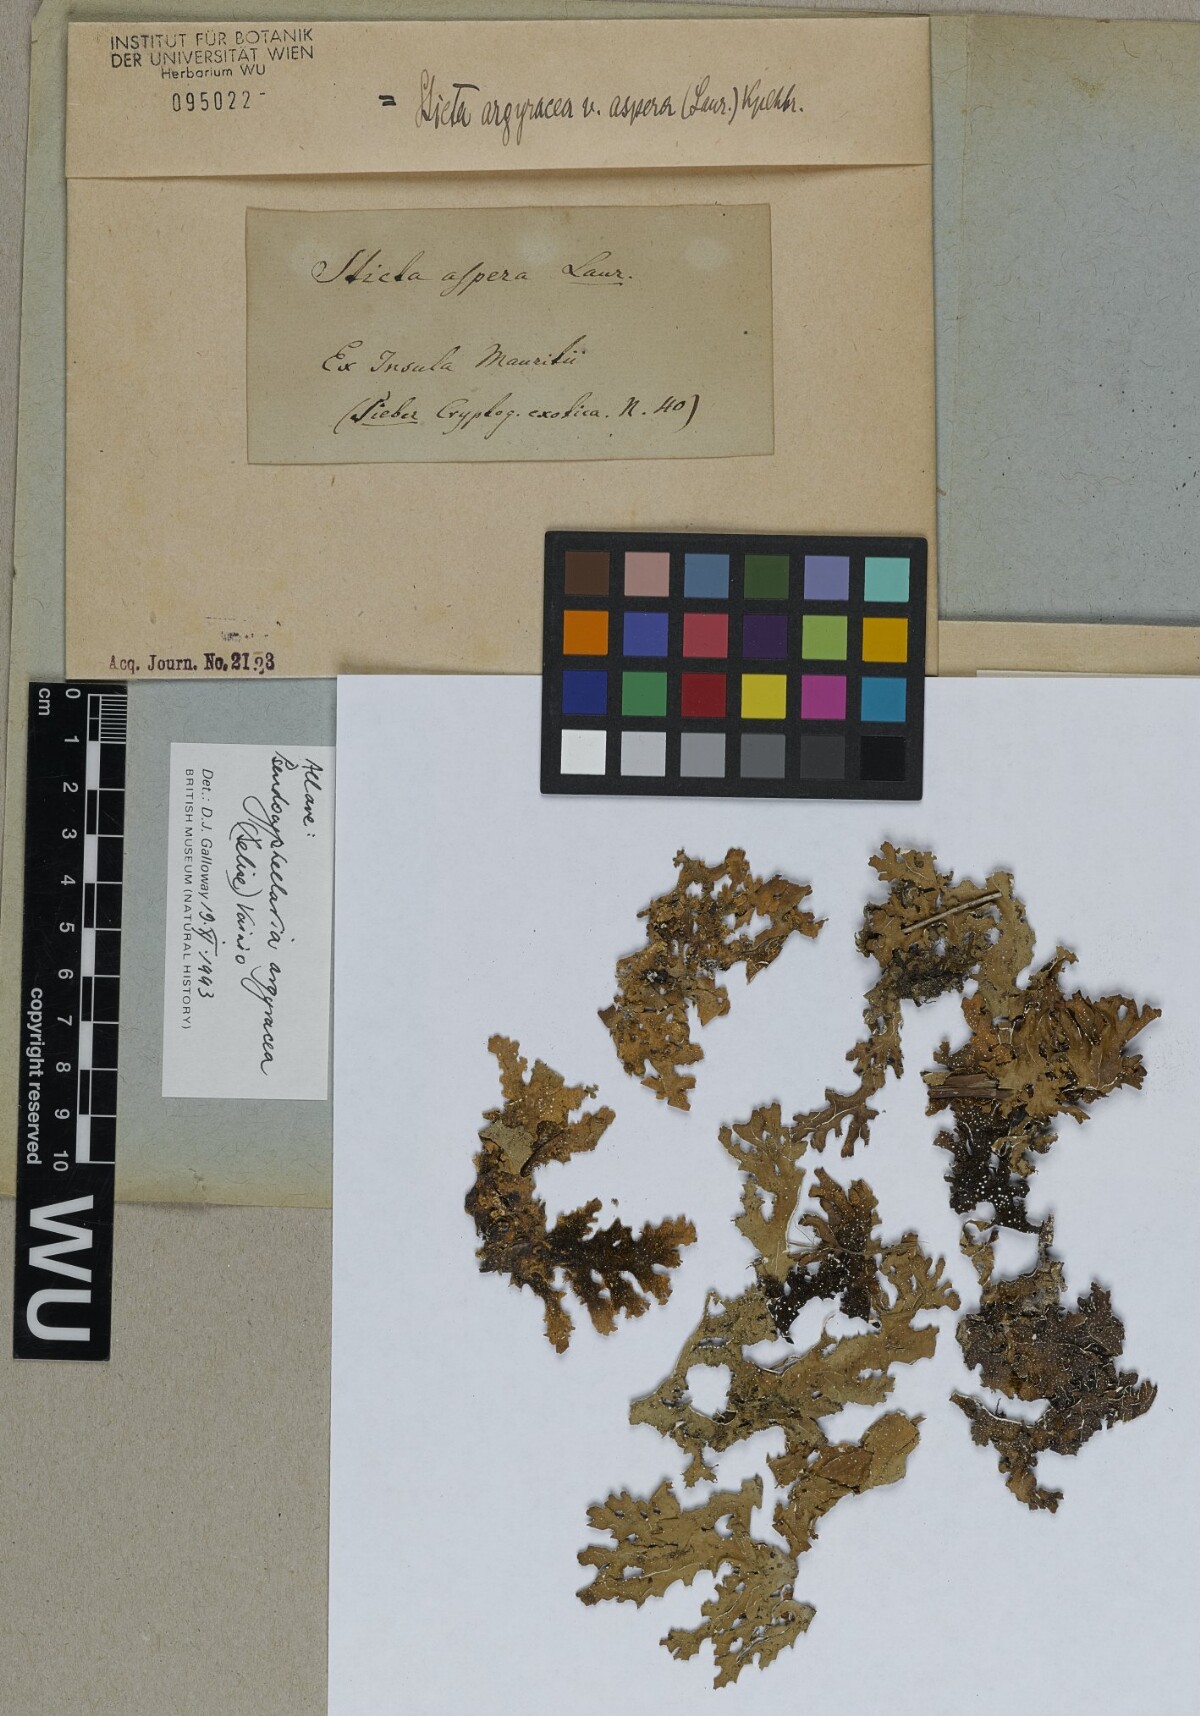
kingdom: Fungi
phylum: Ascomycota
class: Lecanoromycetes
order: Peltigerales
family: Lobariaceae
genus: Pseudocyphellaria
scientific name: Pseudocyphellaria argyracea
